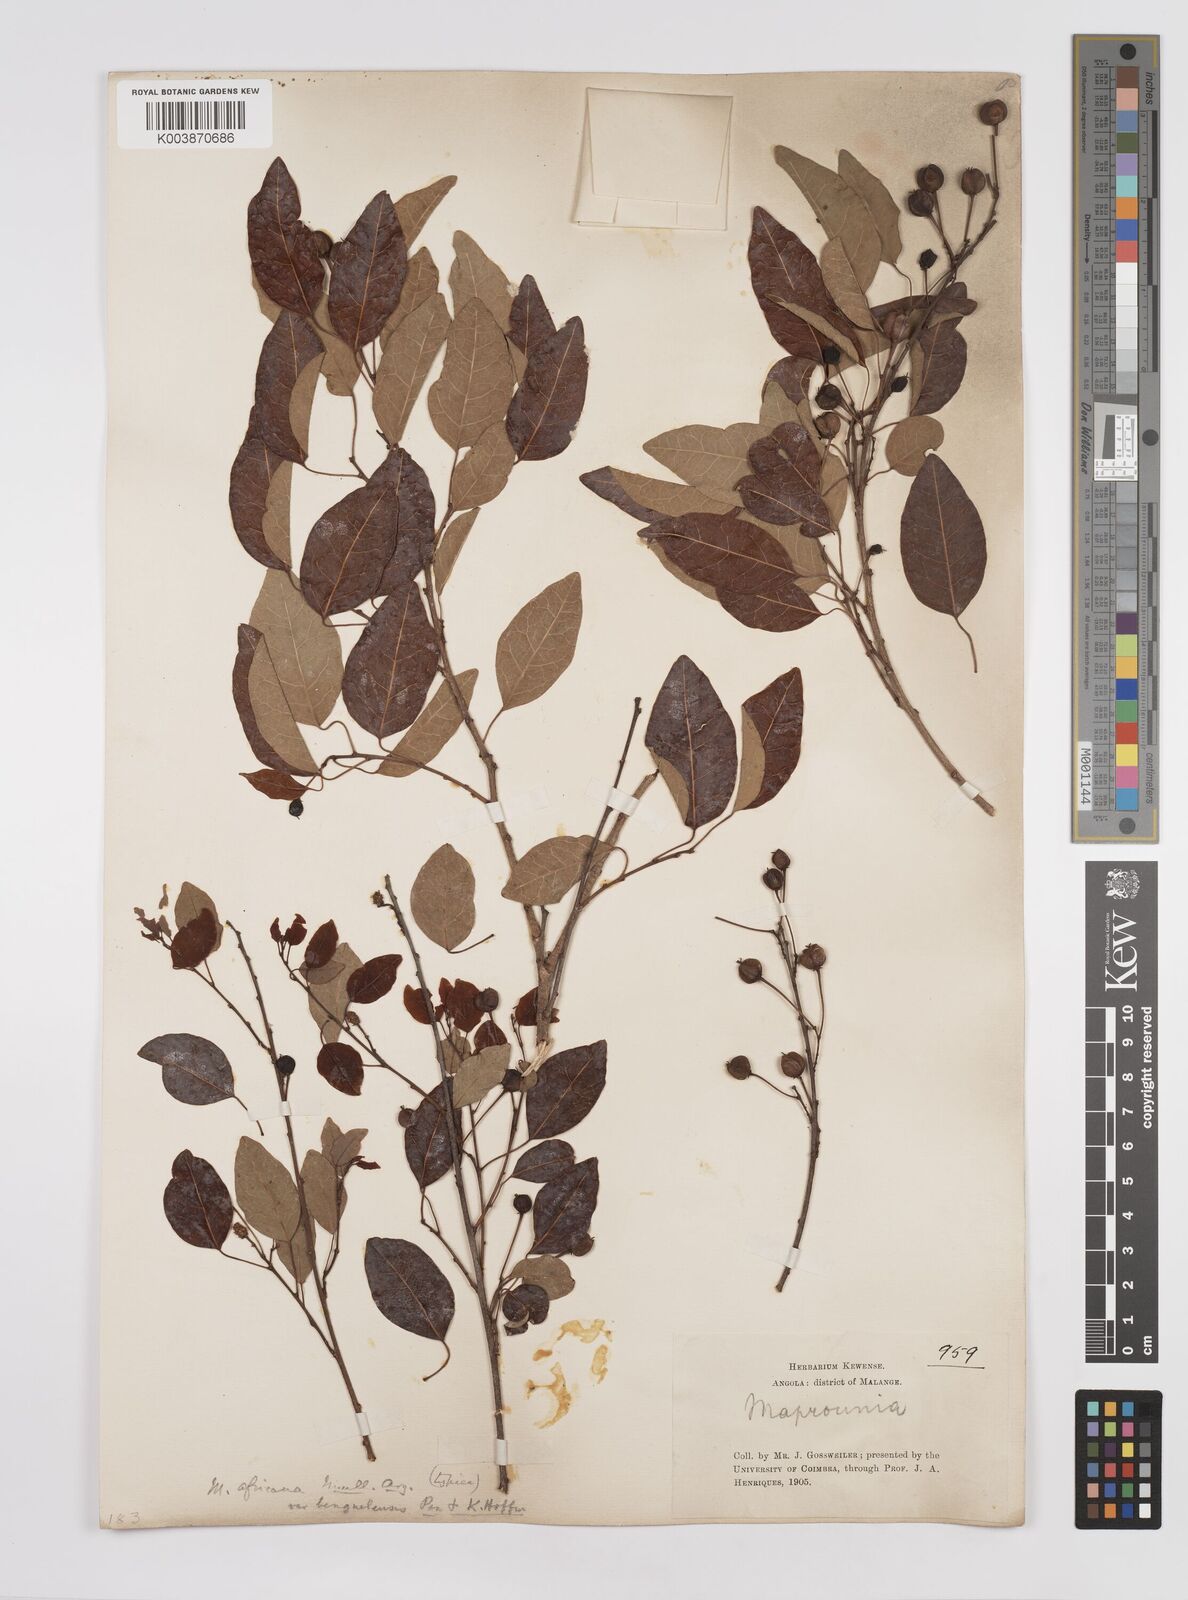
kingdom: Plantae
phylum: Tracheophyta
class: Magnoliopsida
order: Malpighiales
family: Euphorbiaceae
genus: Maprounea
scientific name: Maprounea africana
